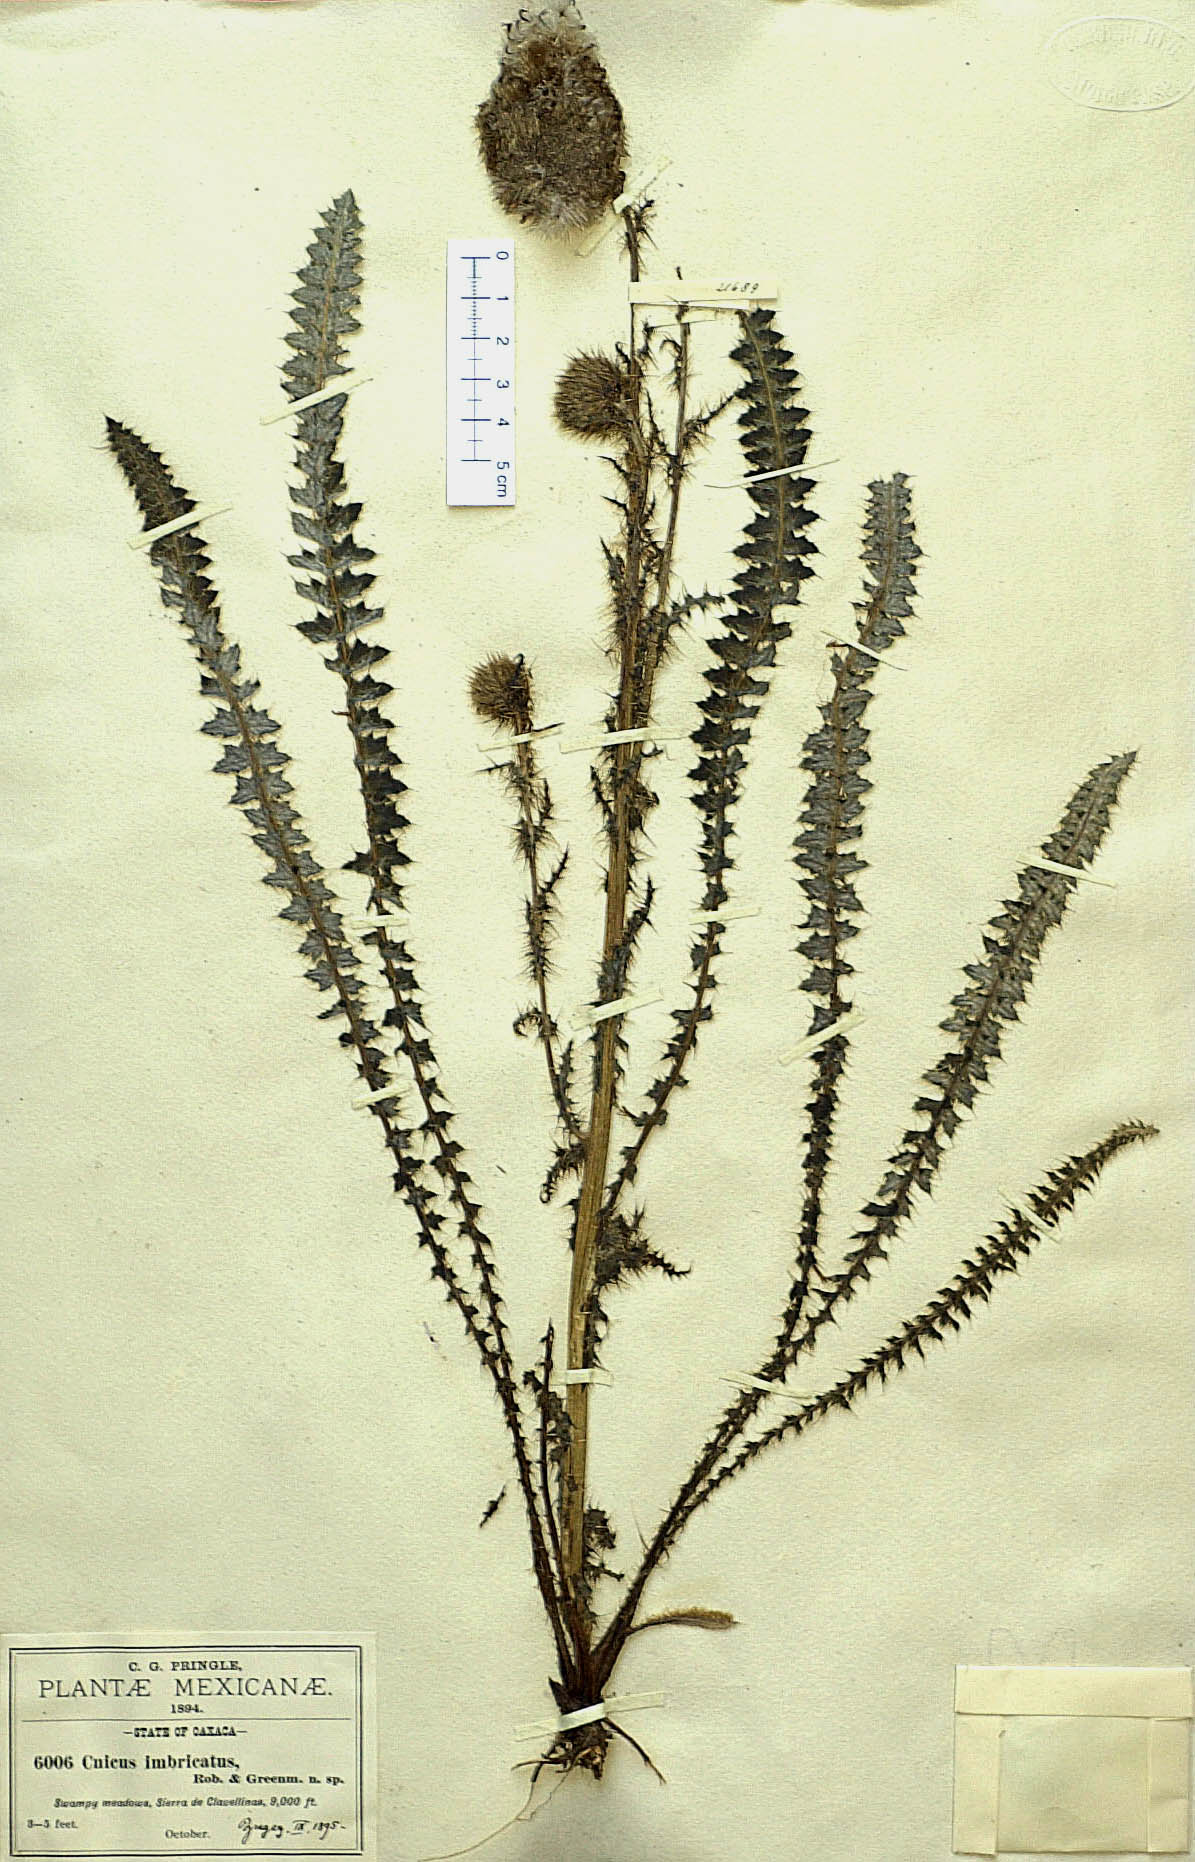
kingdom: Plantae
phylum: Tracheophyta
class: Magnoliopsida
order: Asterales
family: Asteraceae
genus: Cirsium
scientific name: Cirsium imbricatum
